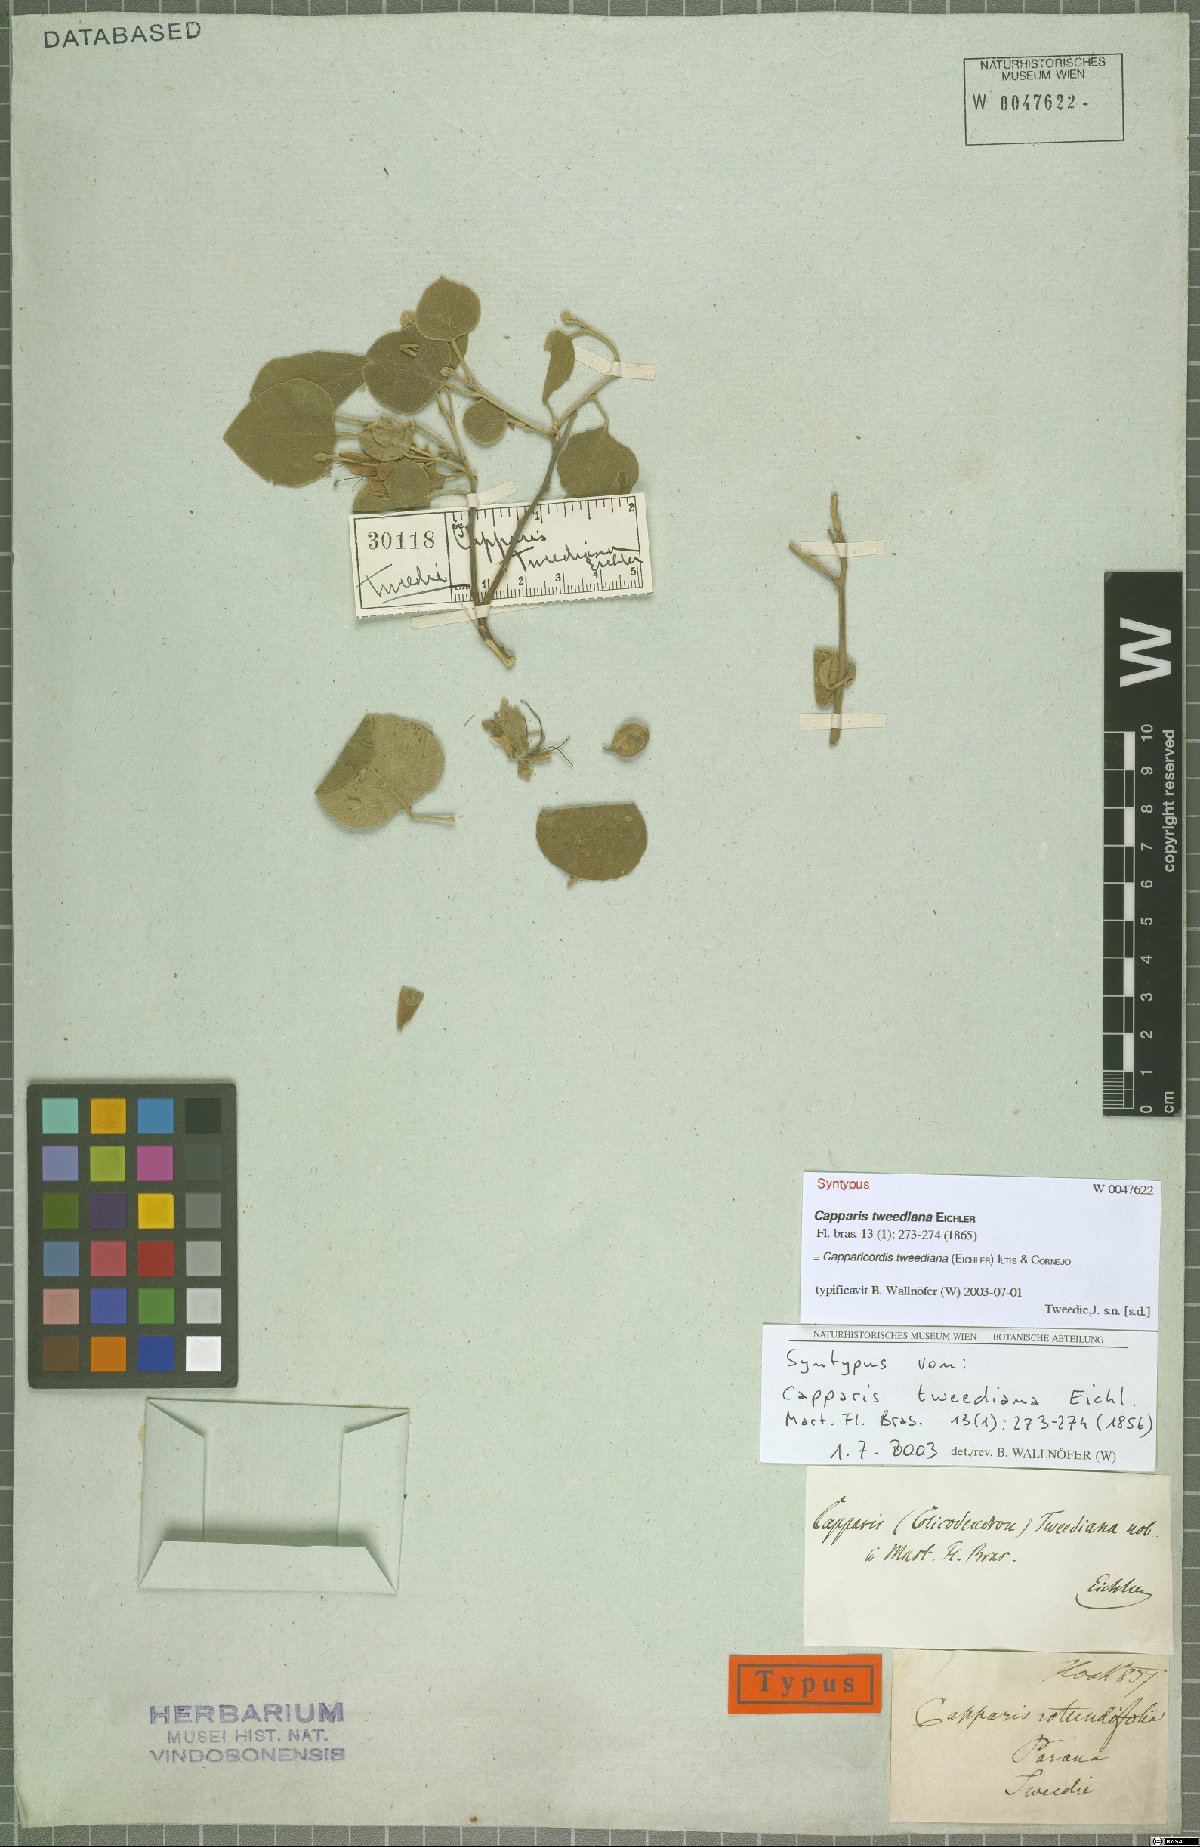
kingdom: Plantae
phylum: Tracheophyta
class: Magnoliopsida
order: Brassicales
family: Capparaceae
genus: Capparicordis
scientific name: Capparicordis tweediana
